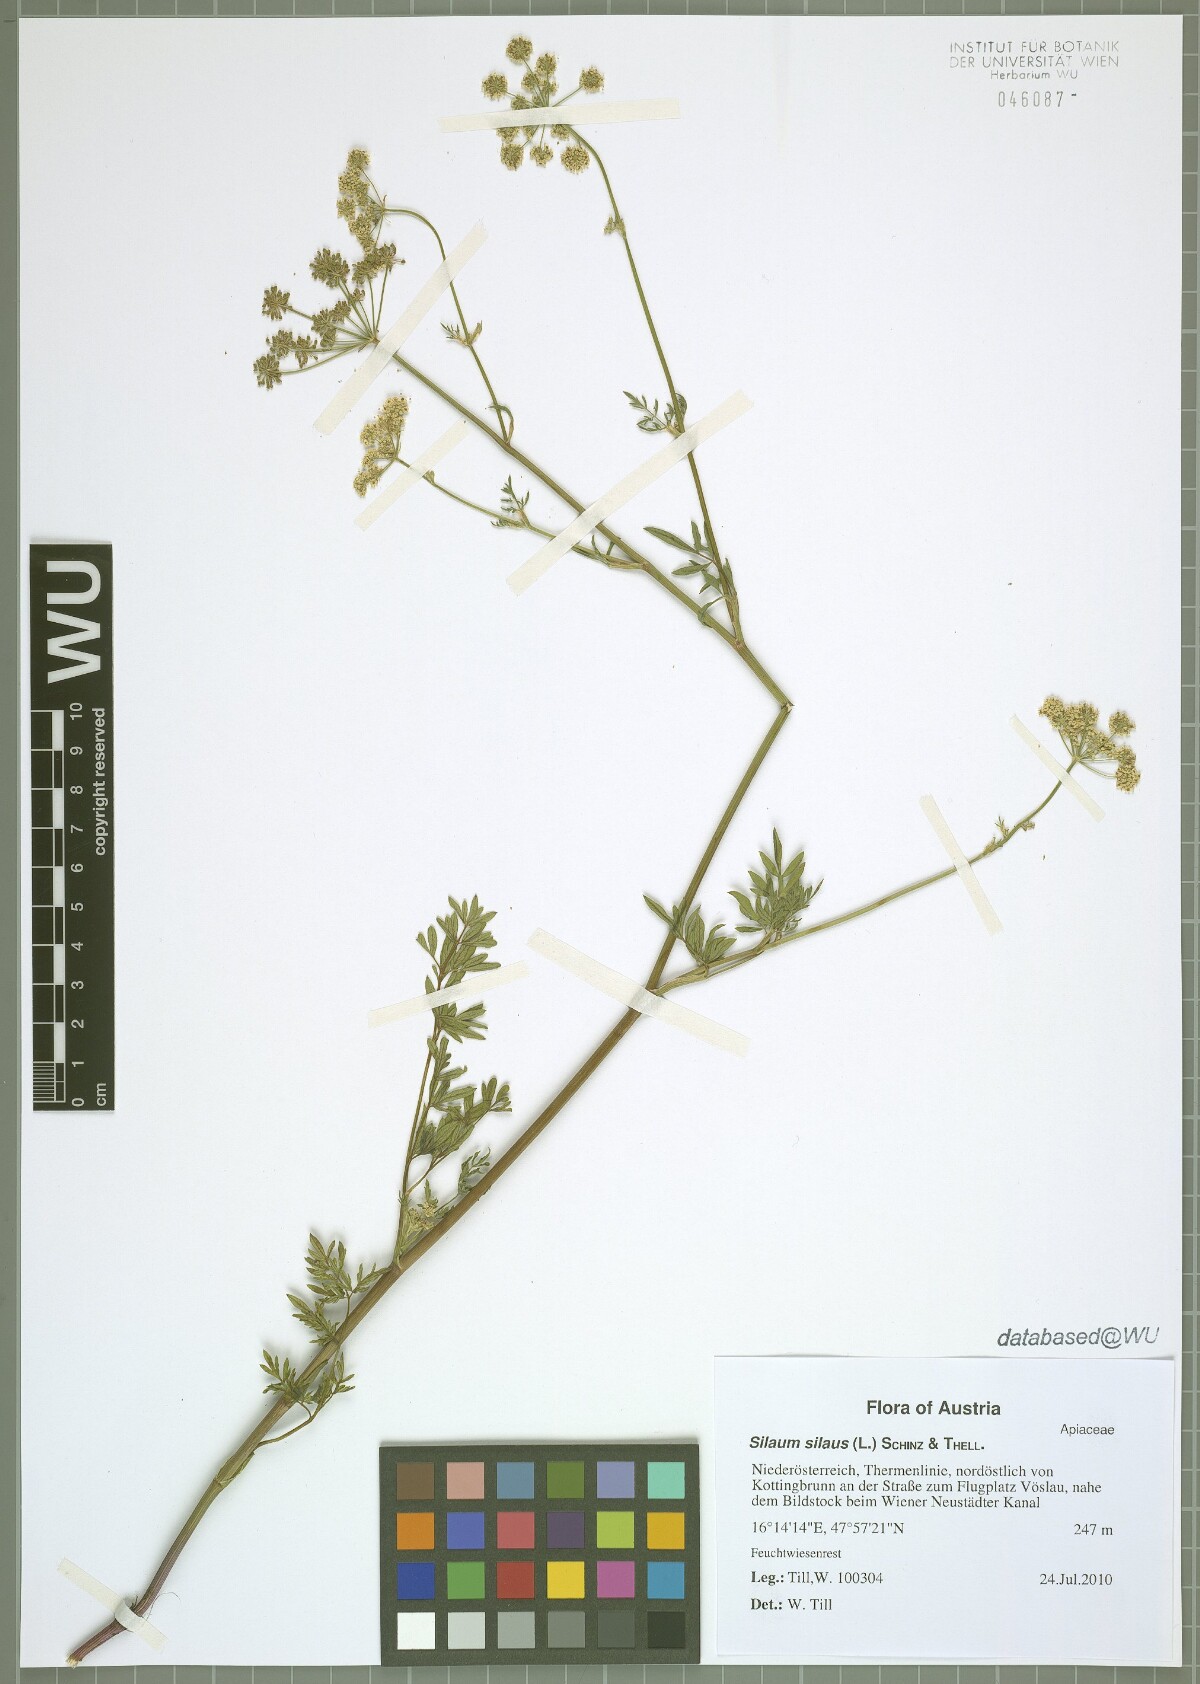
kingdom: Plantae
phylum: Tracheophyta
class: Magnoliopsida
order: Apiales
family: Apiaceae
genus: Silaum
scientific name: Silaum silaus
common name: Pepper-saxifrage
